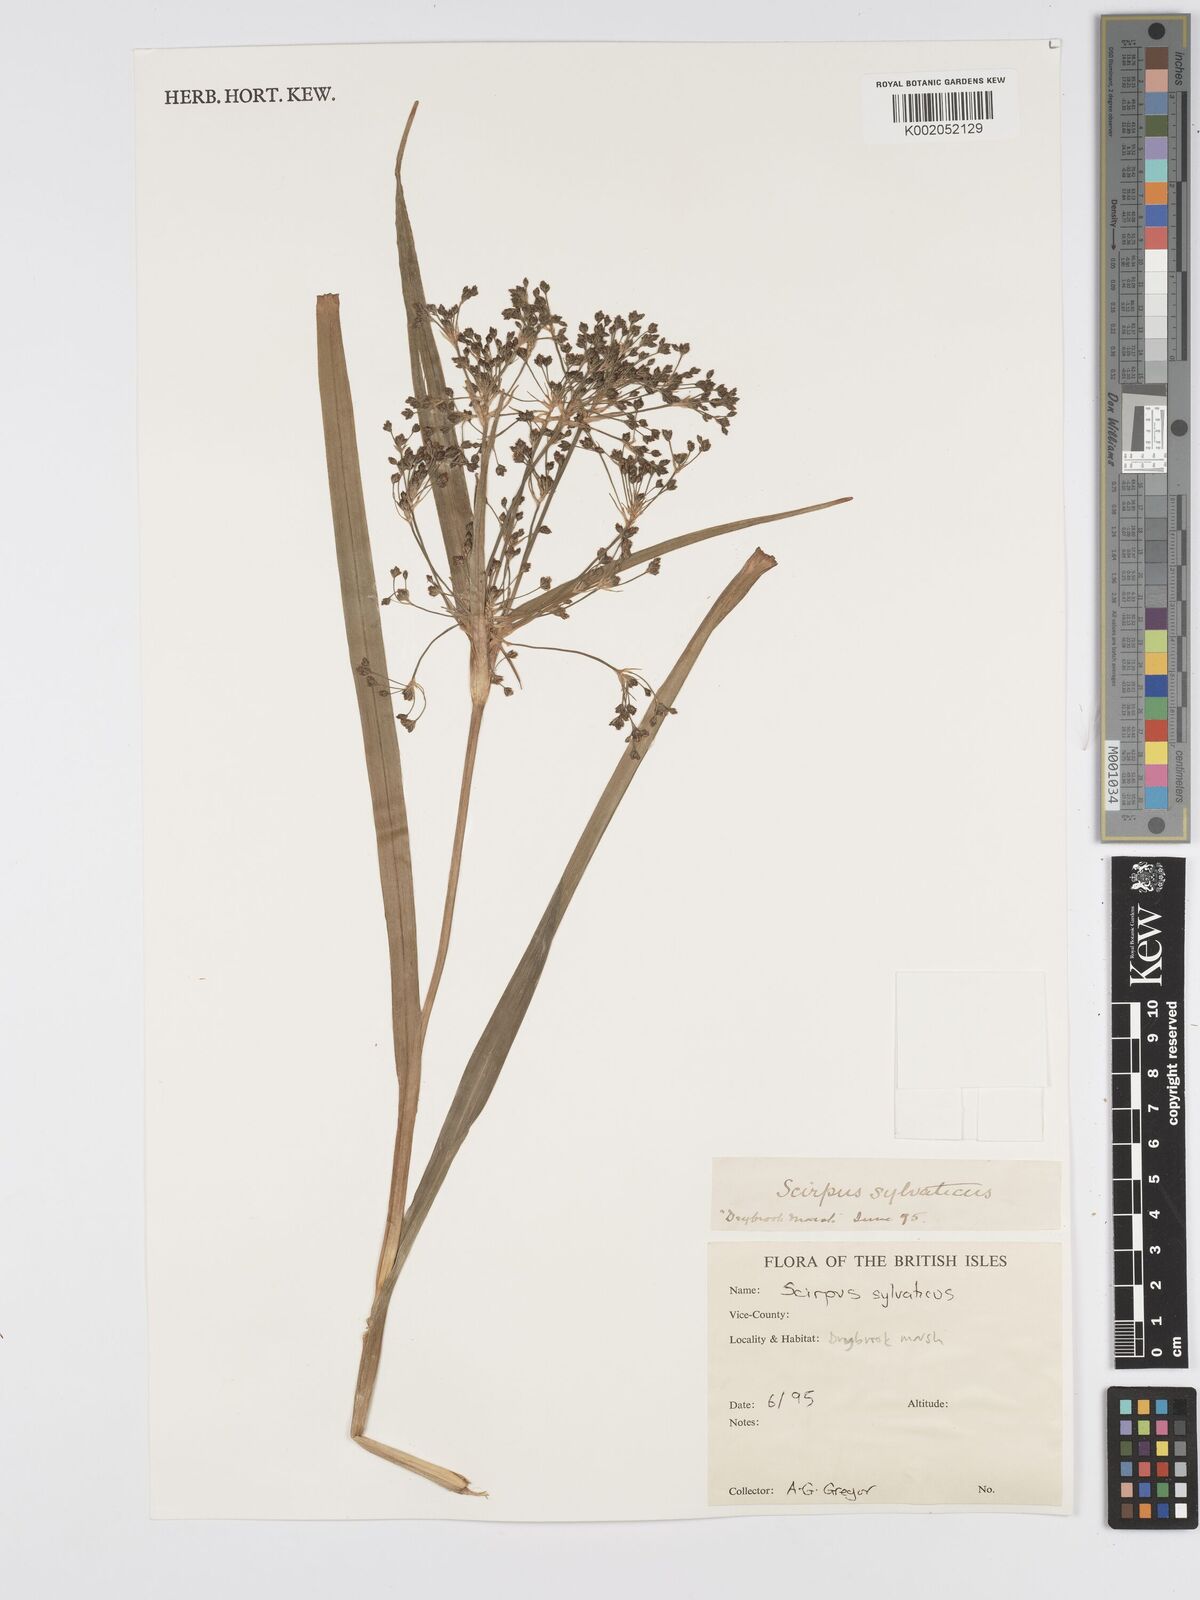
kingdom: Plantae
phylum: Tracheophyta
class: Liliopsida
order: Poales
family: Cyperaceae
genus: Scirpus
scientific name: Scirpus sylvaticus
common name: Wood club-rush
